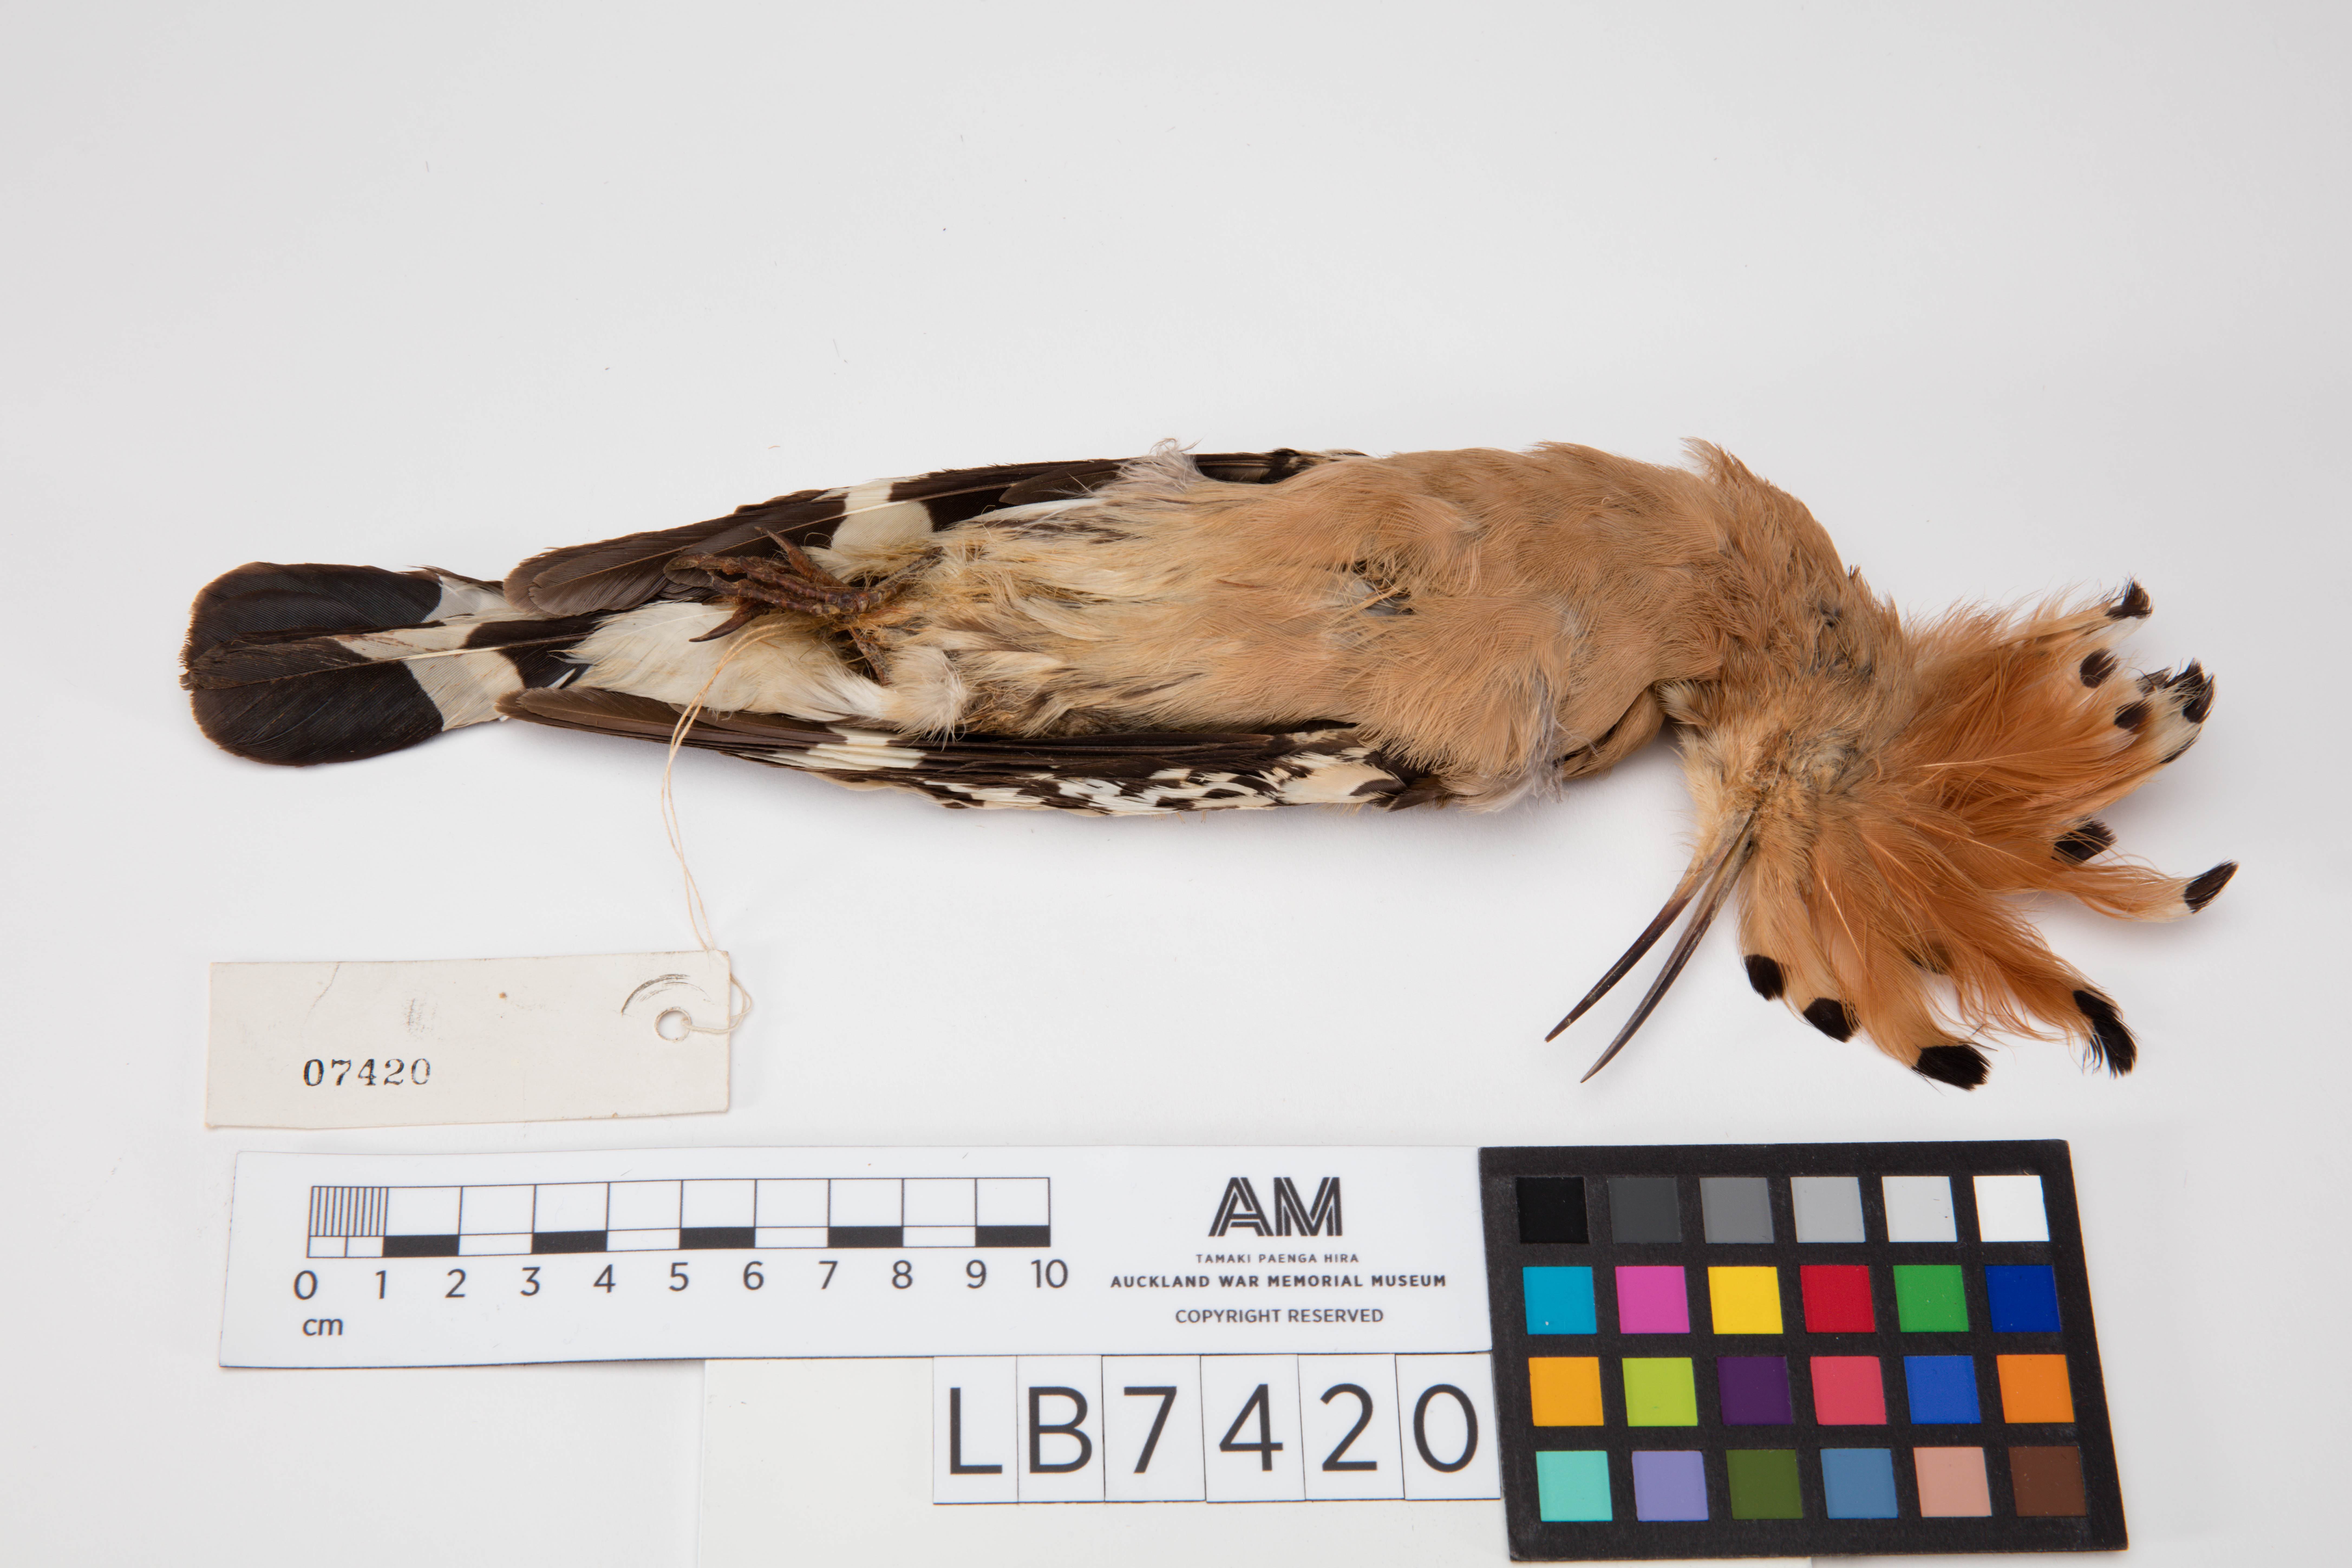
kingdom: Animalia
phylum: Chordata
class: Aves
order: Bucerotiformes
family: Upupidae
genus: Upupa
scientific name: Upupa epops
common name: Eurasian hoopoe
